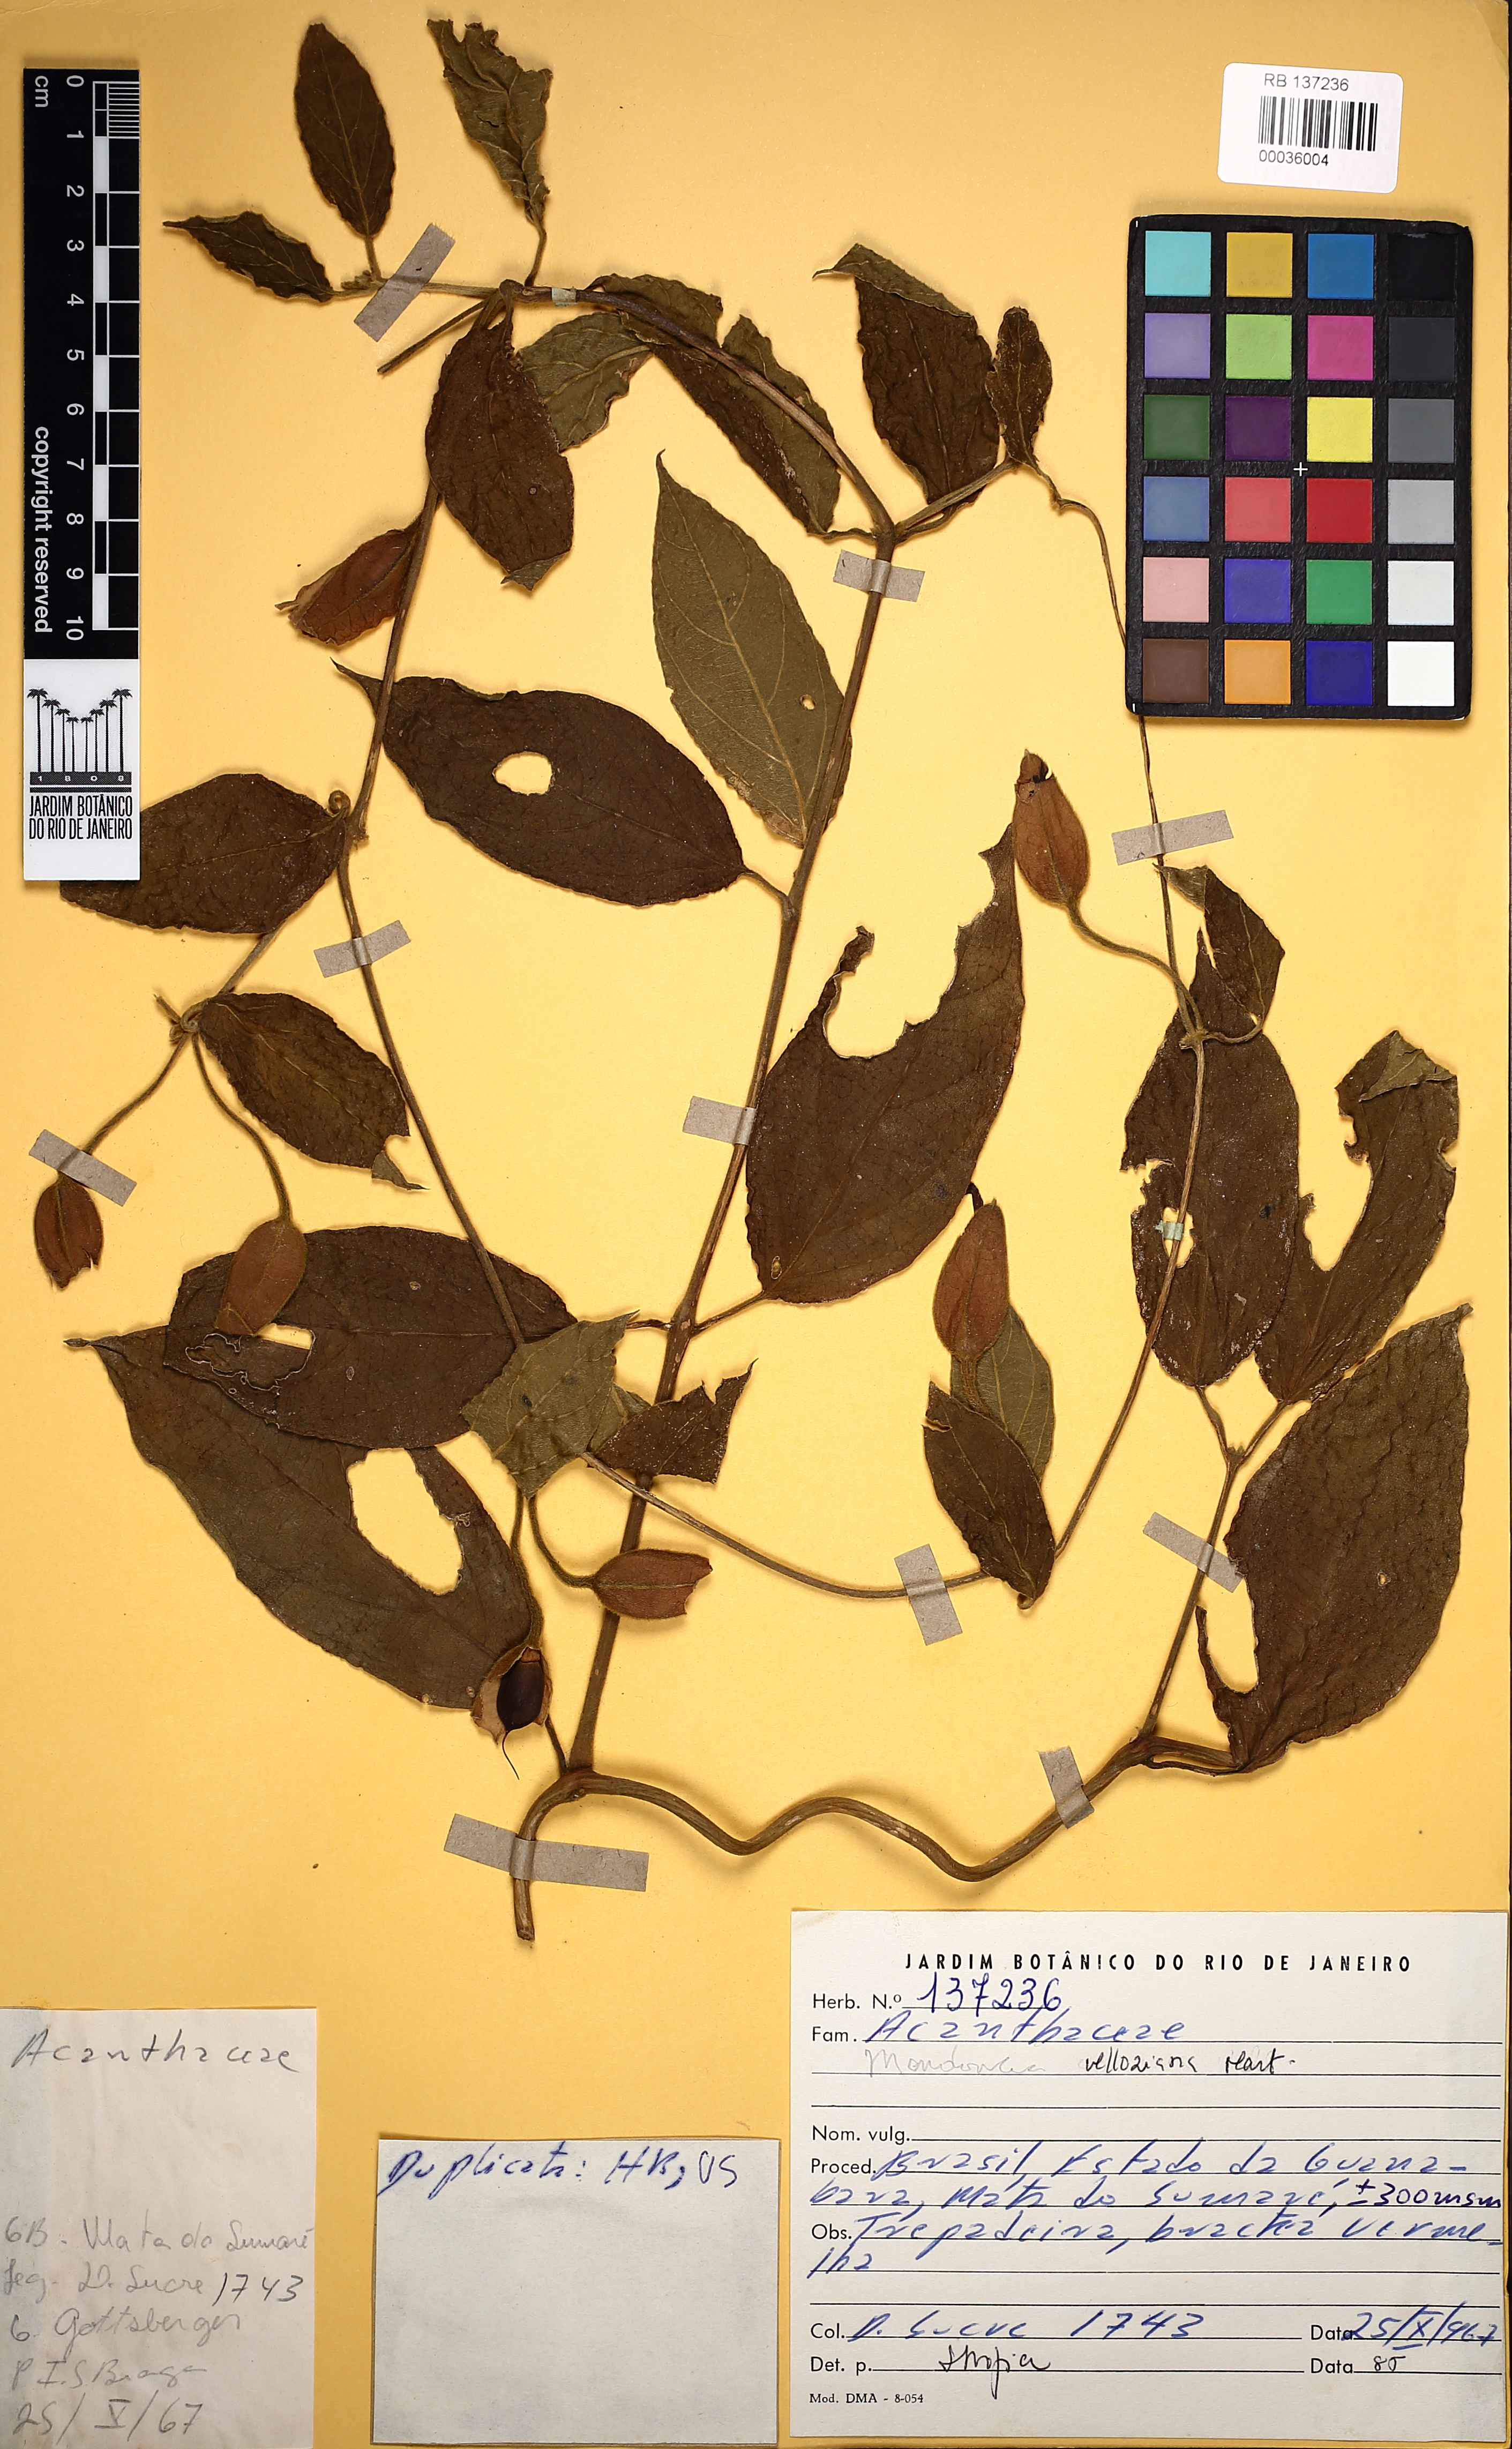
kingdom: Plantae
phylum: Tracheophyta
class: Magnoliopsida
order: Lamiales
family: Acanthaceae
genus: Mendoncia
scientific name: Mendoncia velloziana
